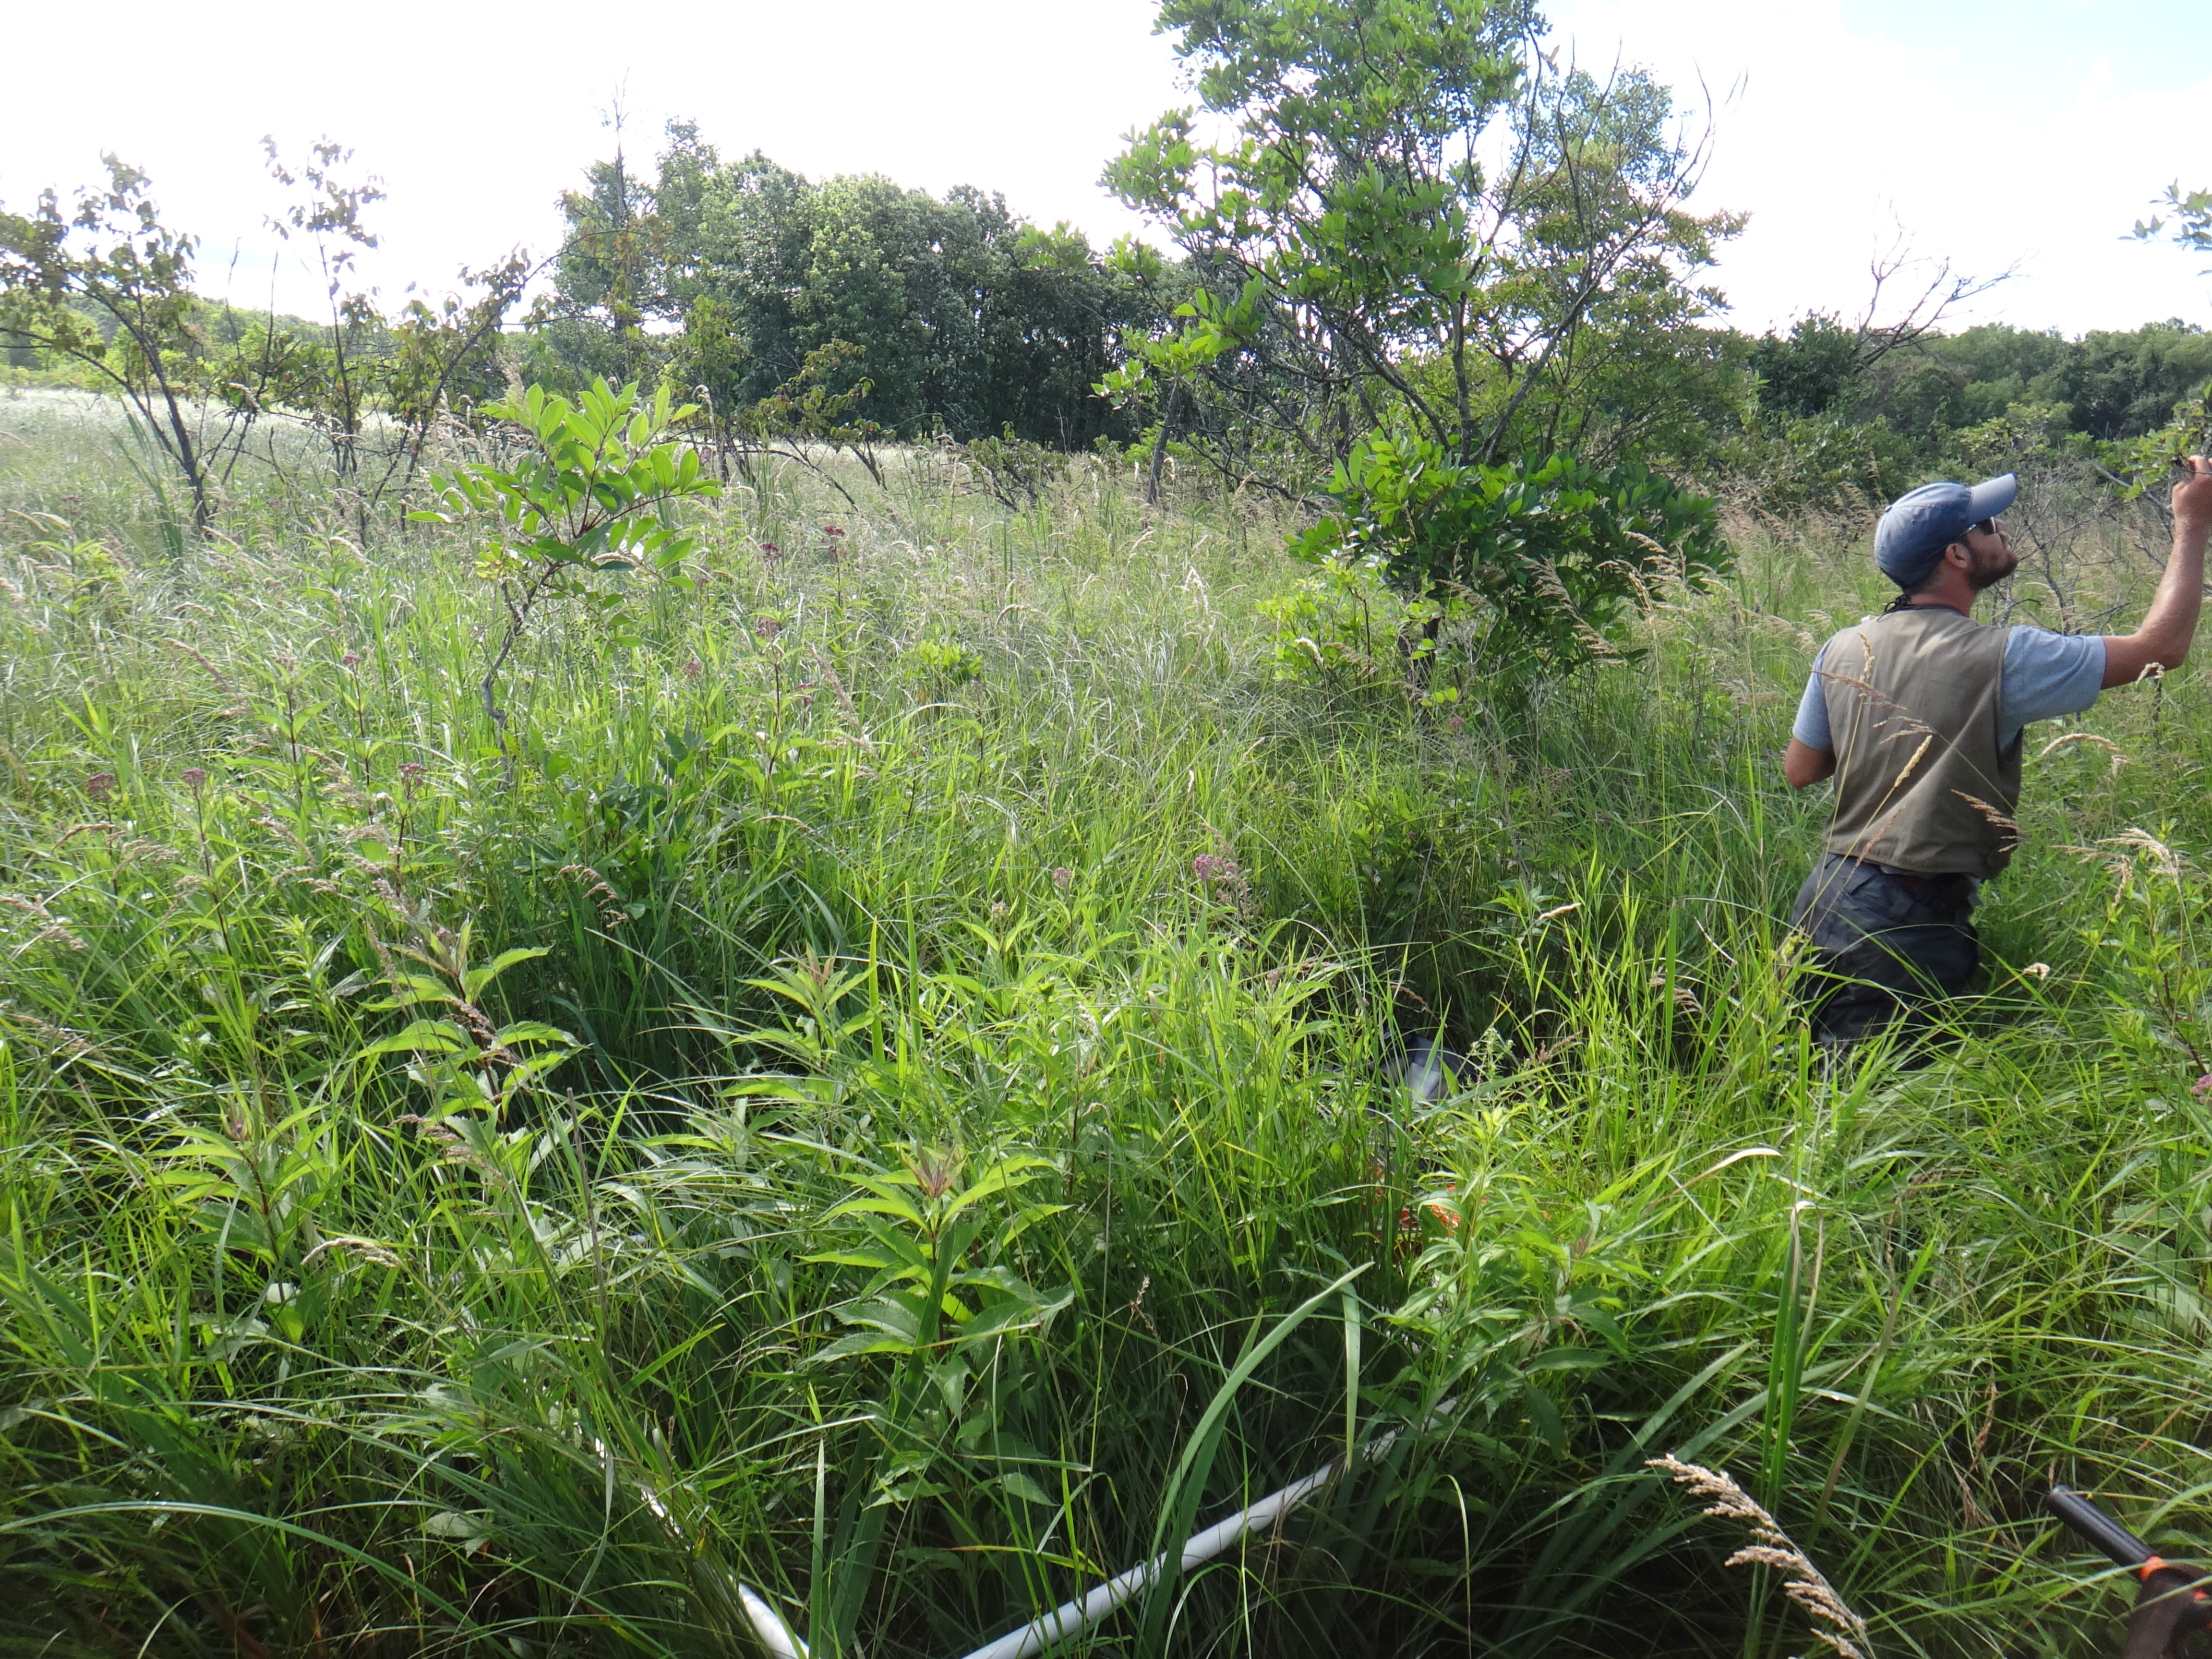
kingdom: Plantae
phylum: Tracheophyta
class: Magnoliopsida
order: Rosales
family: Rosaceae
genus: Rubus
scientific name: Rubus pubescens
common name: Dwarf raspberry
